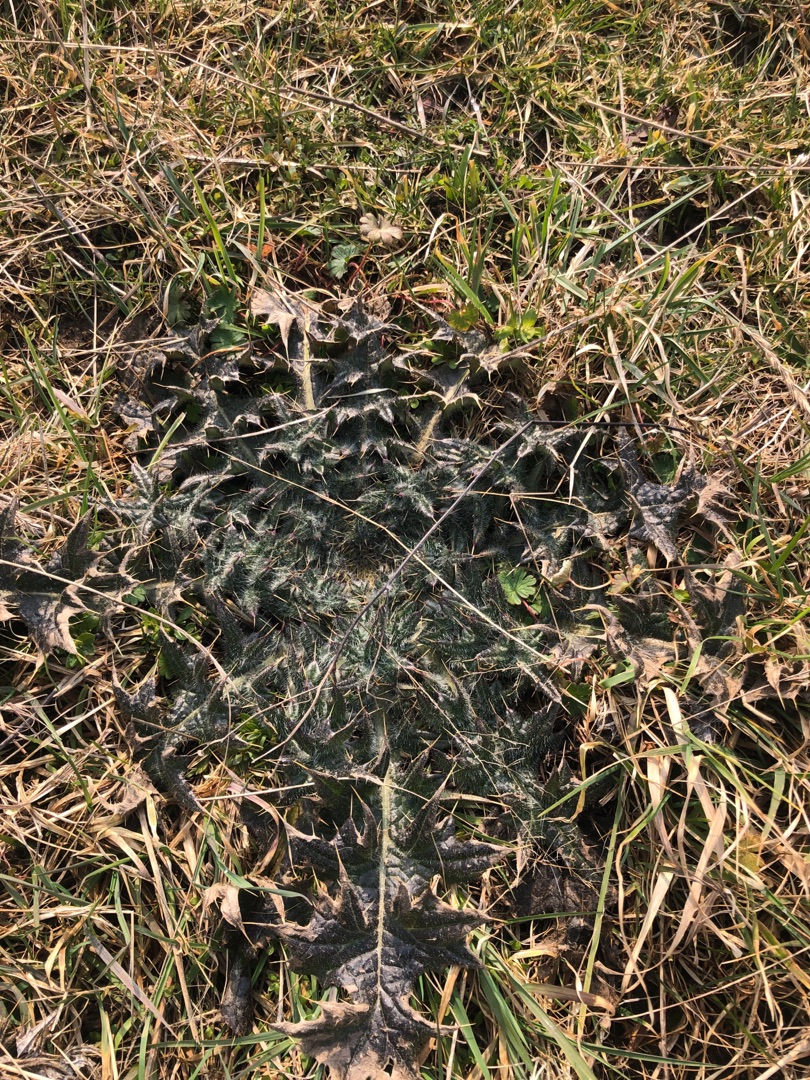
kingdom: Plantae
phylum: Tracheophyta
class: Magnoliopsida
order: Asterales
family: Asteraceae
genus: Cirsium
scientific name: Cirsium vulgare
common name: Horse-tidsel
